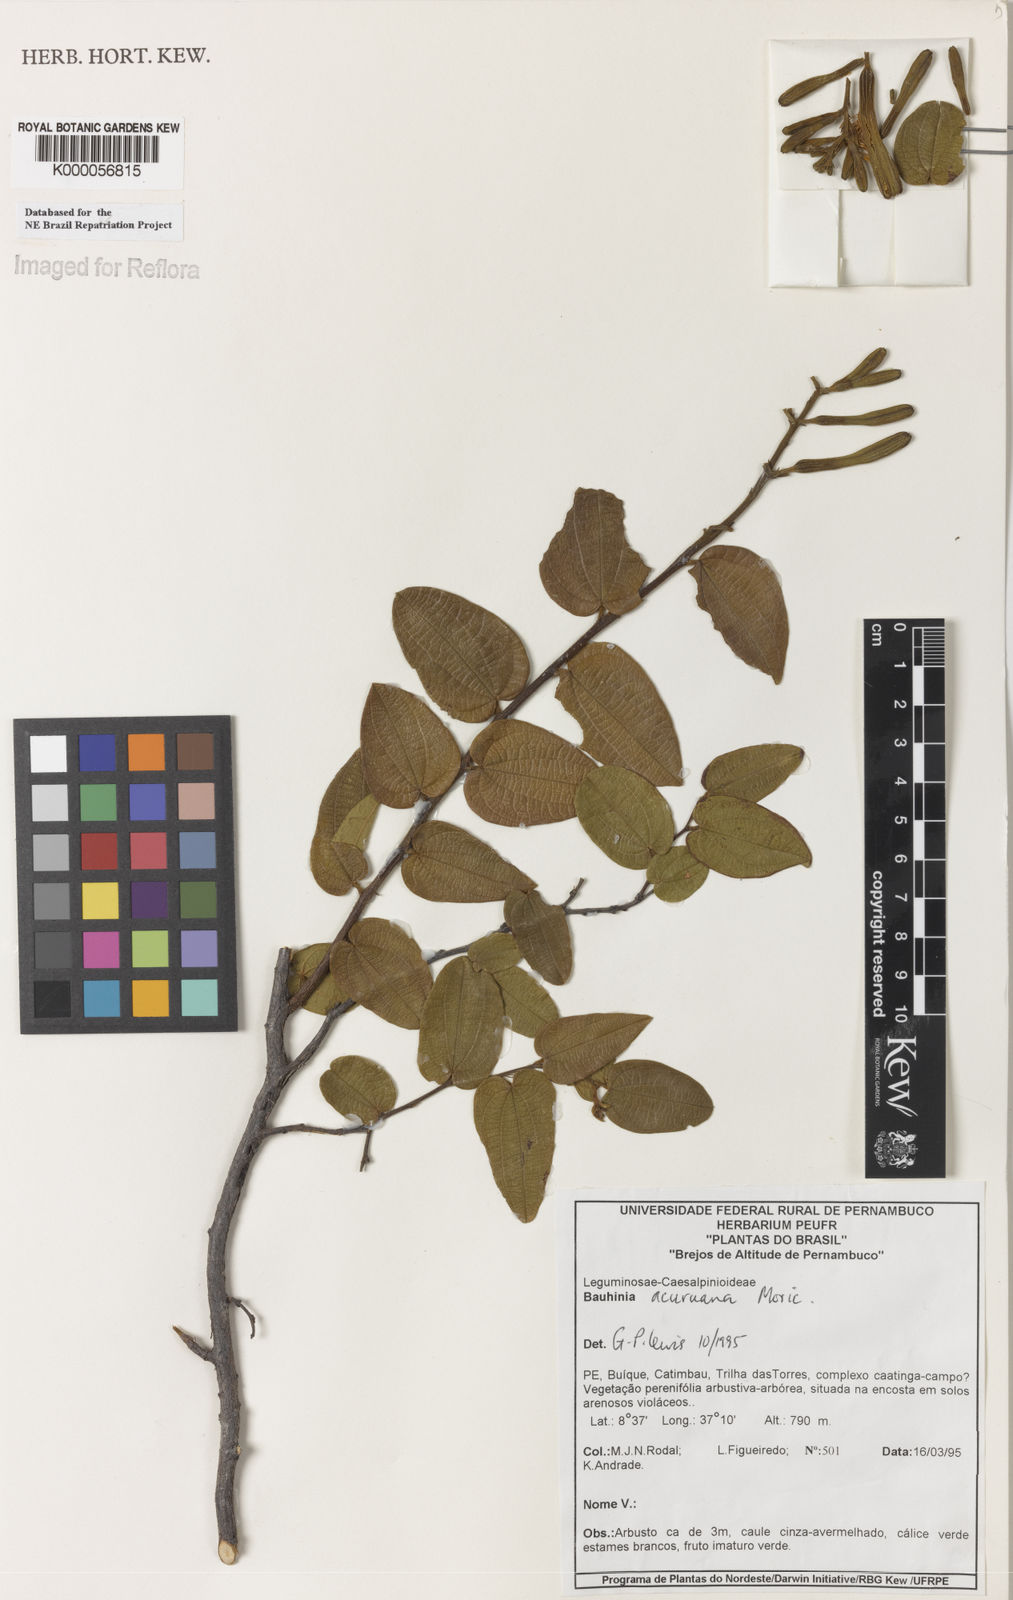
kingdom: Plantae
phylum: Tracheophyta
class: Magnoliopsida
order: Fabales
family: Fabaceae
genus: Bauhinia
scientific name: Bauhinia acuruana
